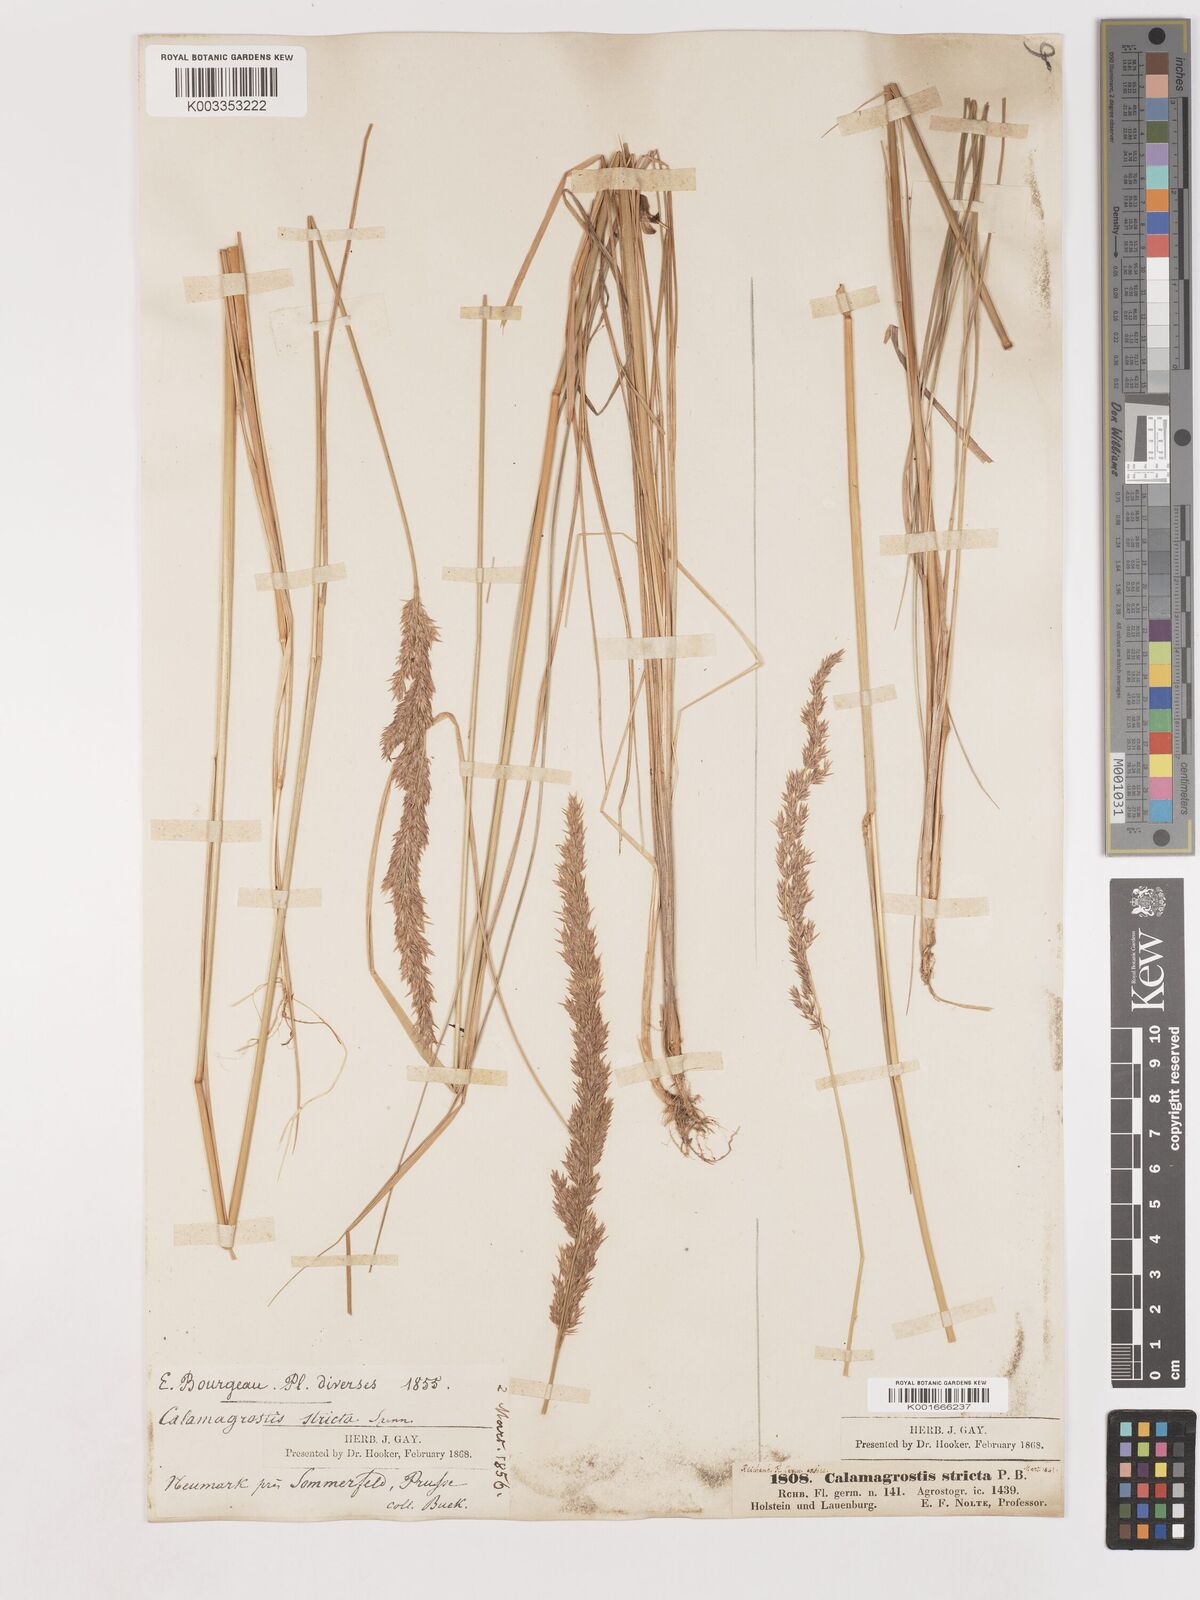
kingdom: Plantae
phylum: Tracheophyta
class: Liliopsida
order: Poales
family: Poaceae
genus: Cinnagrostis
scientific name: Cinnagrostis recta
